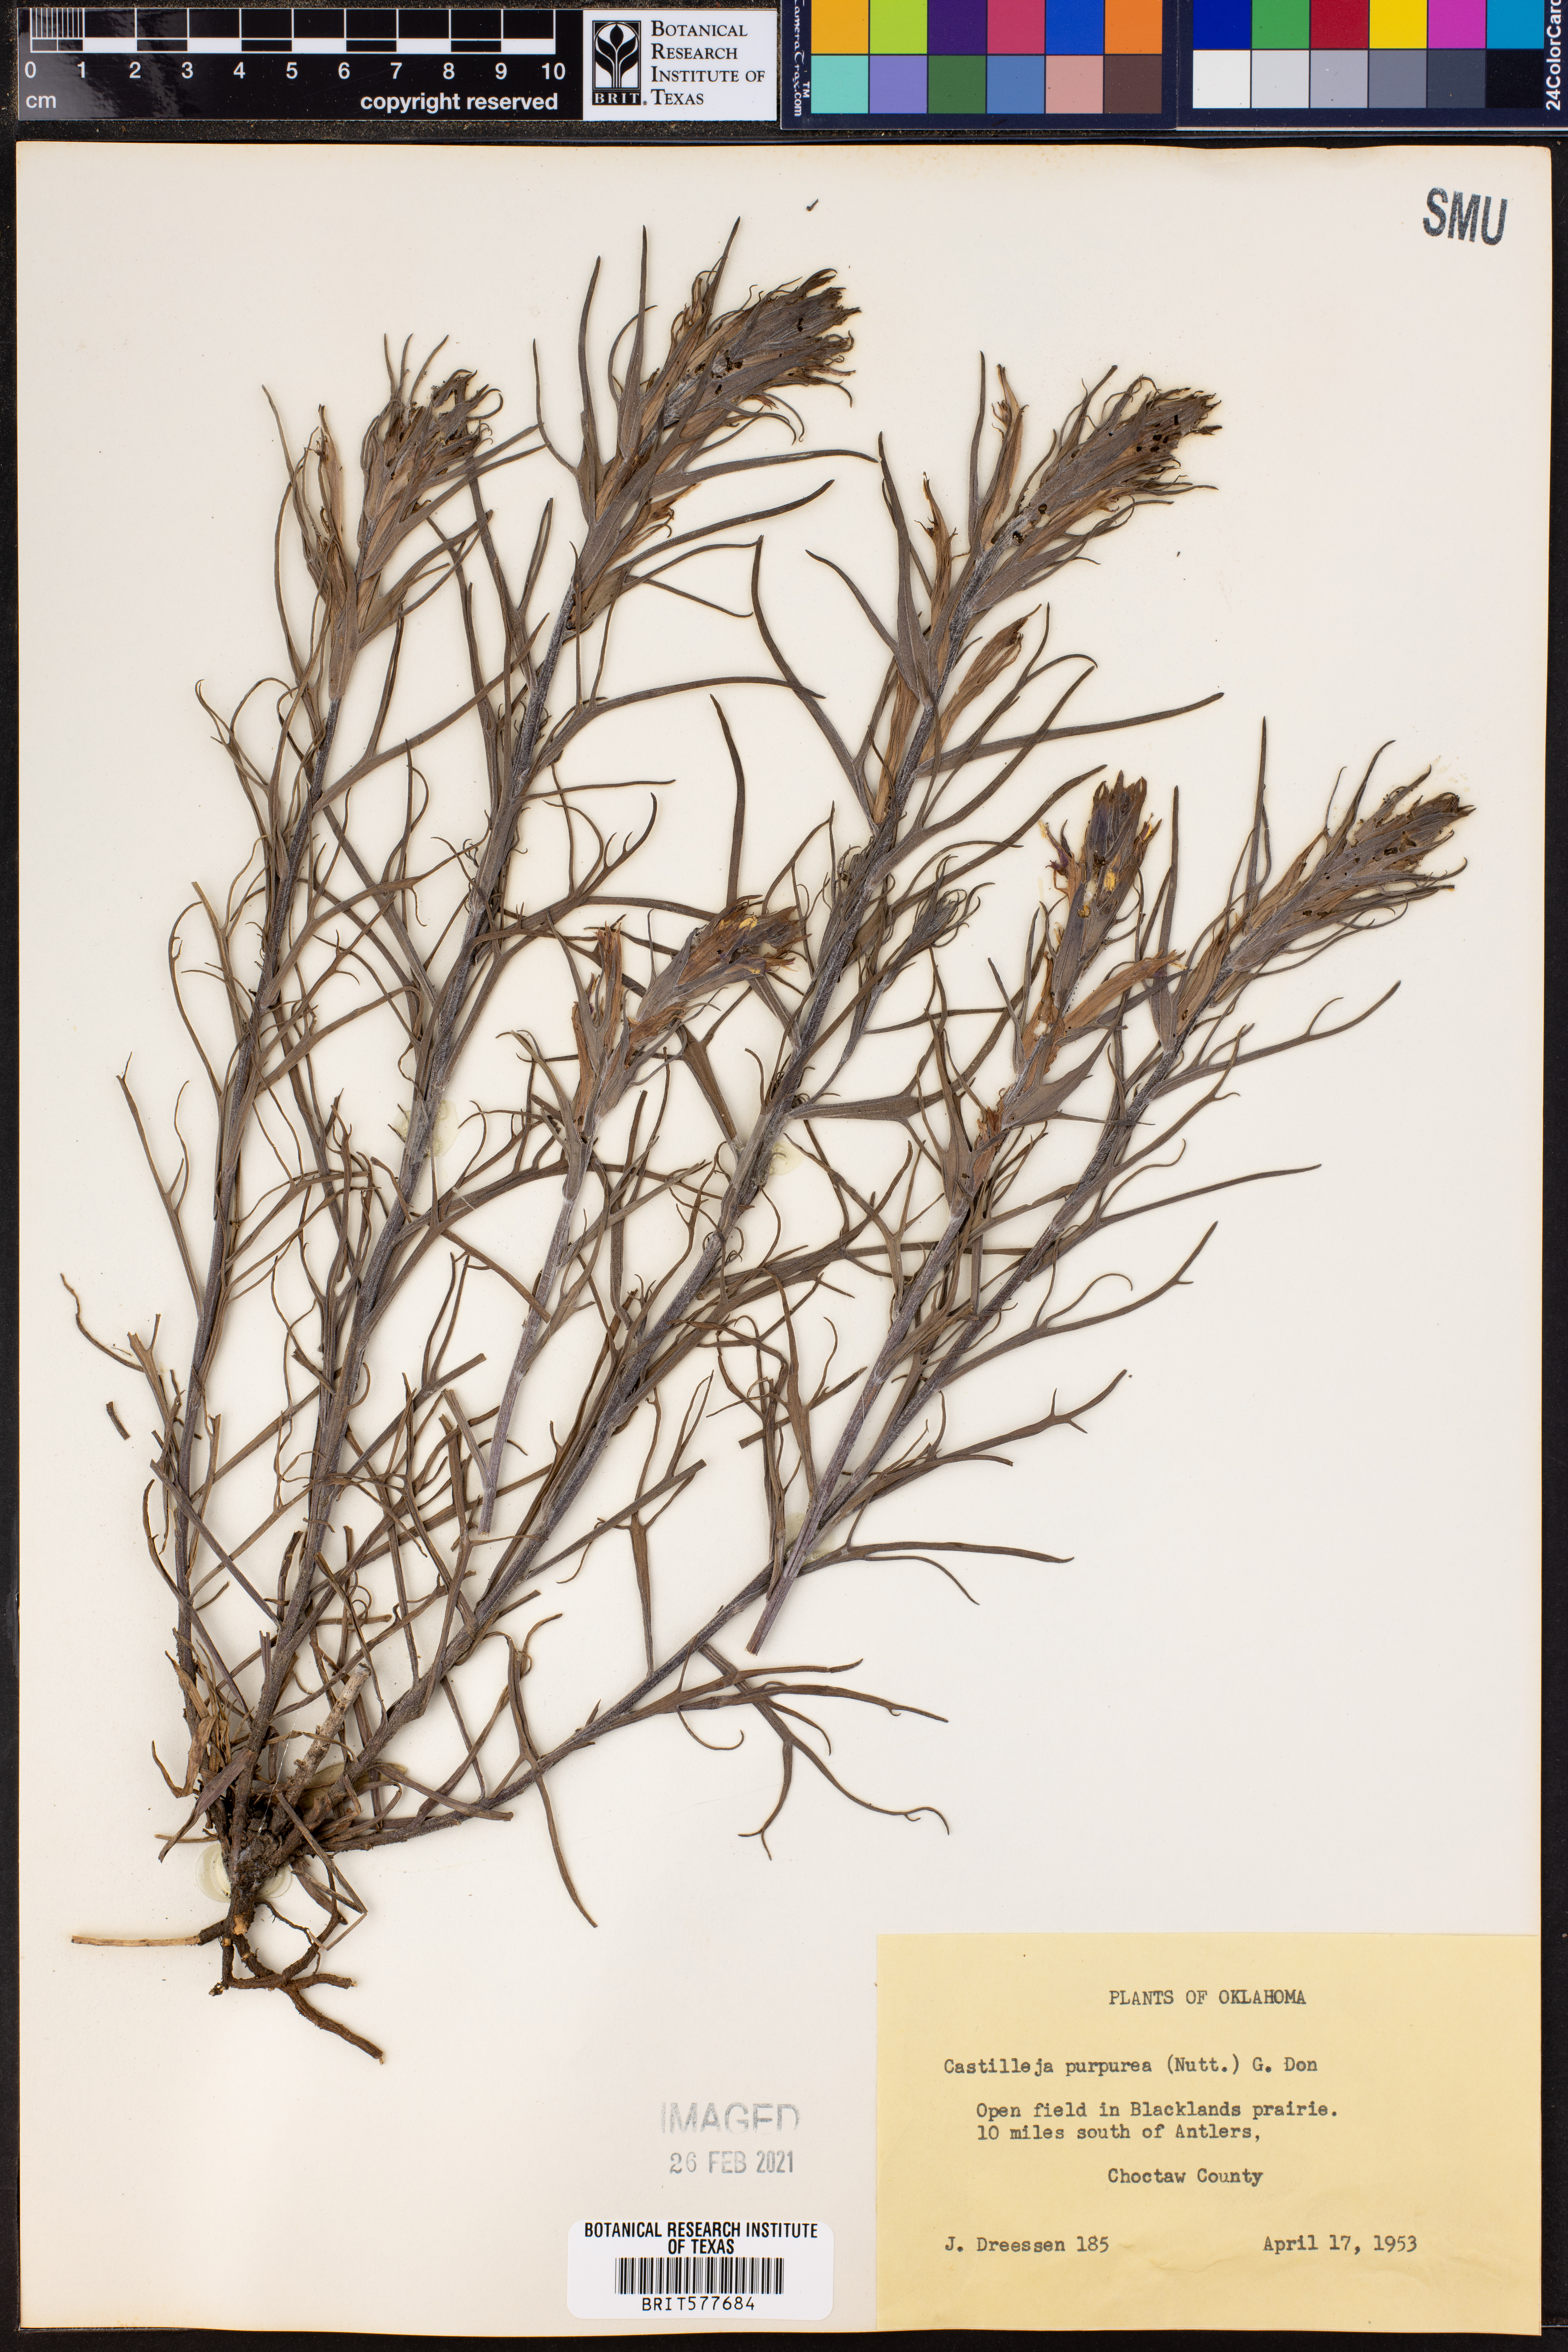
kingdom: Plantae
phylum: Tracheophyta
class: Magnoliopsida
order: Lamiales
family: Orobanchaceae
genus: Castilleja
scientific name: Castilleja purpurea
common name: Plains paintbrush
